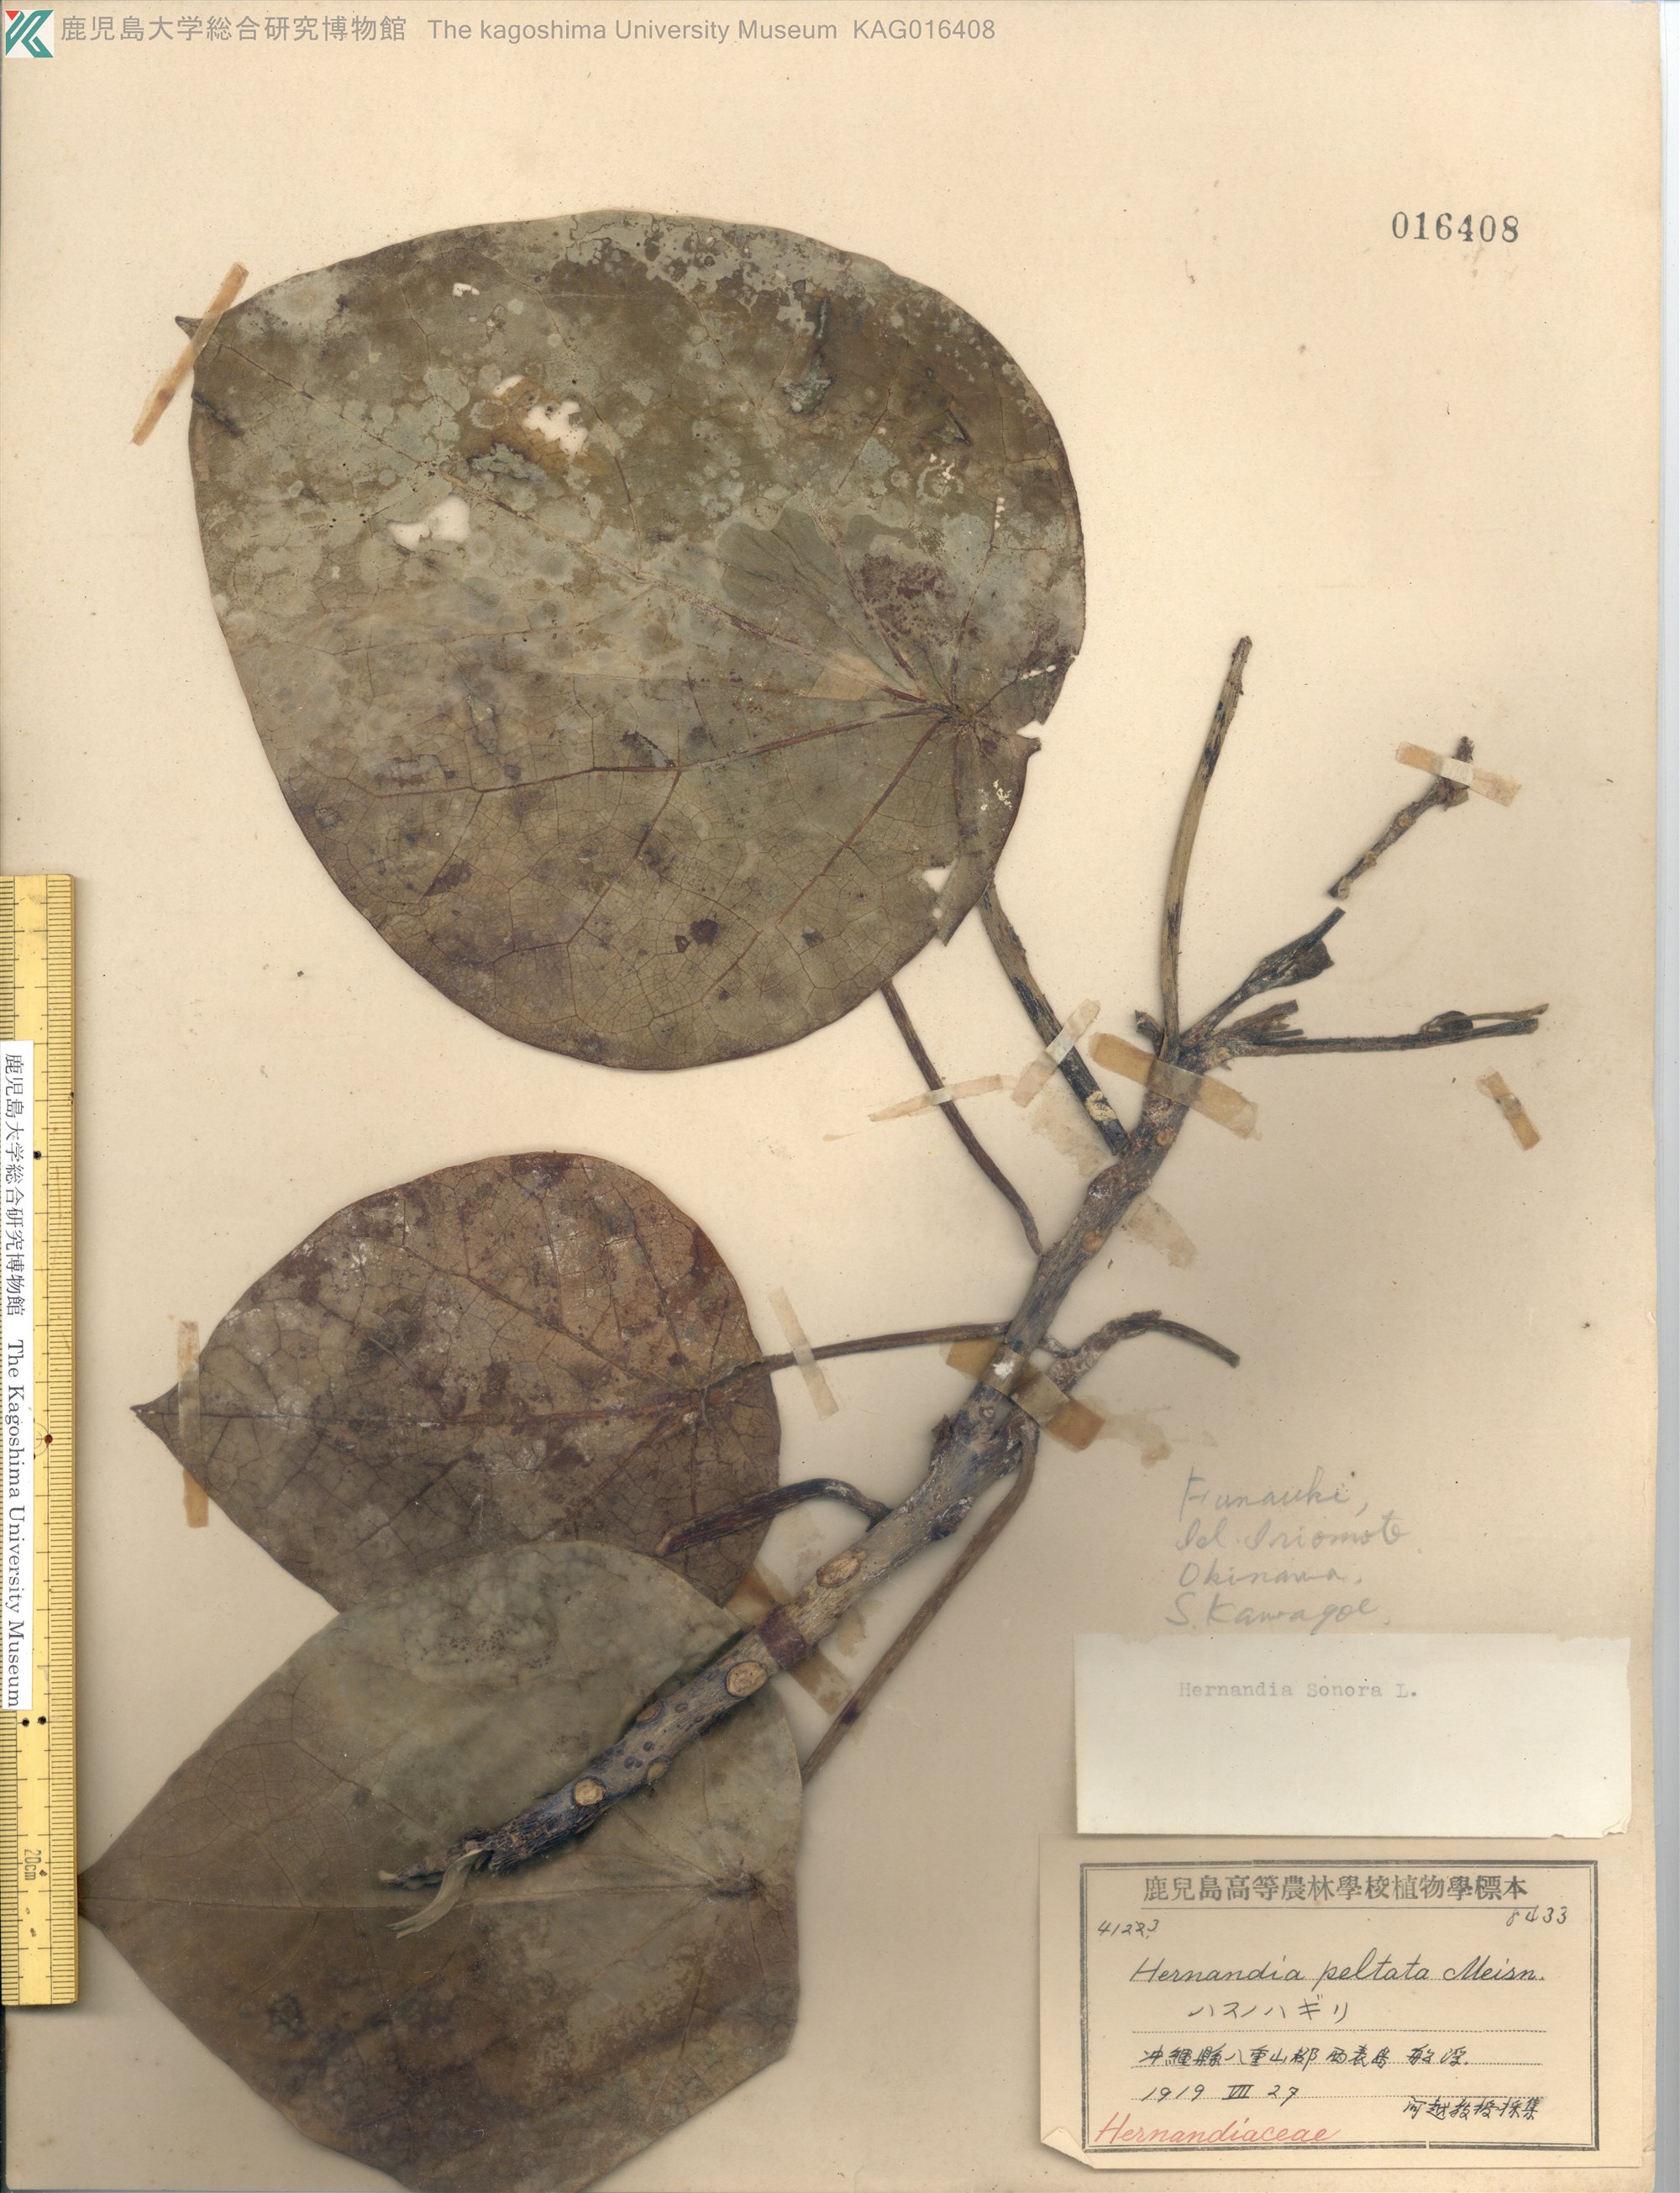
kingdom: Plantae
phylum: Tracheophyta
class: Magnoliopsida
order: Laurales
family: Hernandiaceae
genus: Hernandia
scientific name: Hernandia nymphaeifolia
